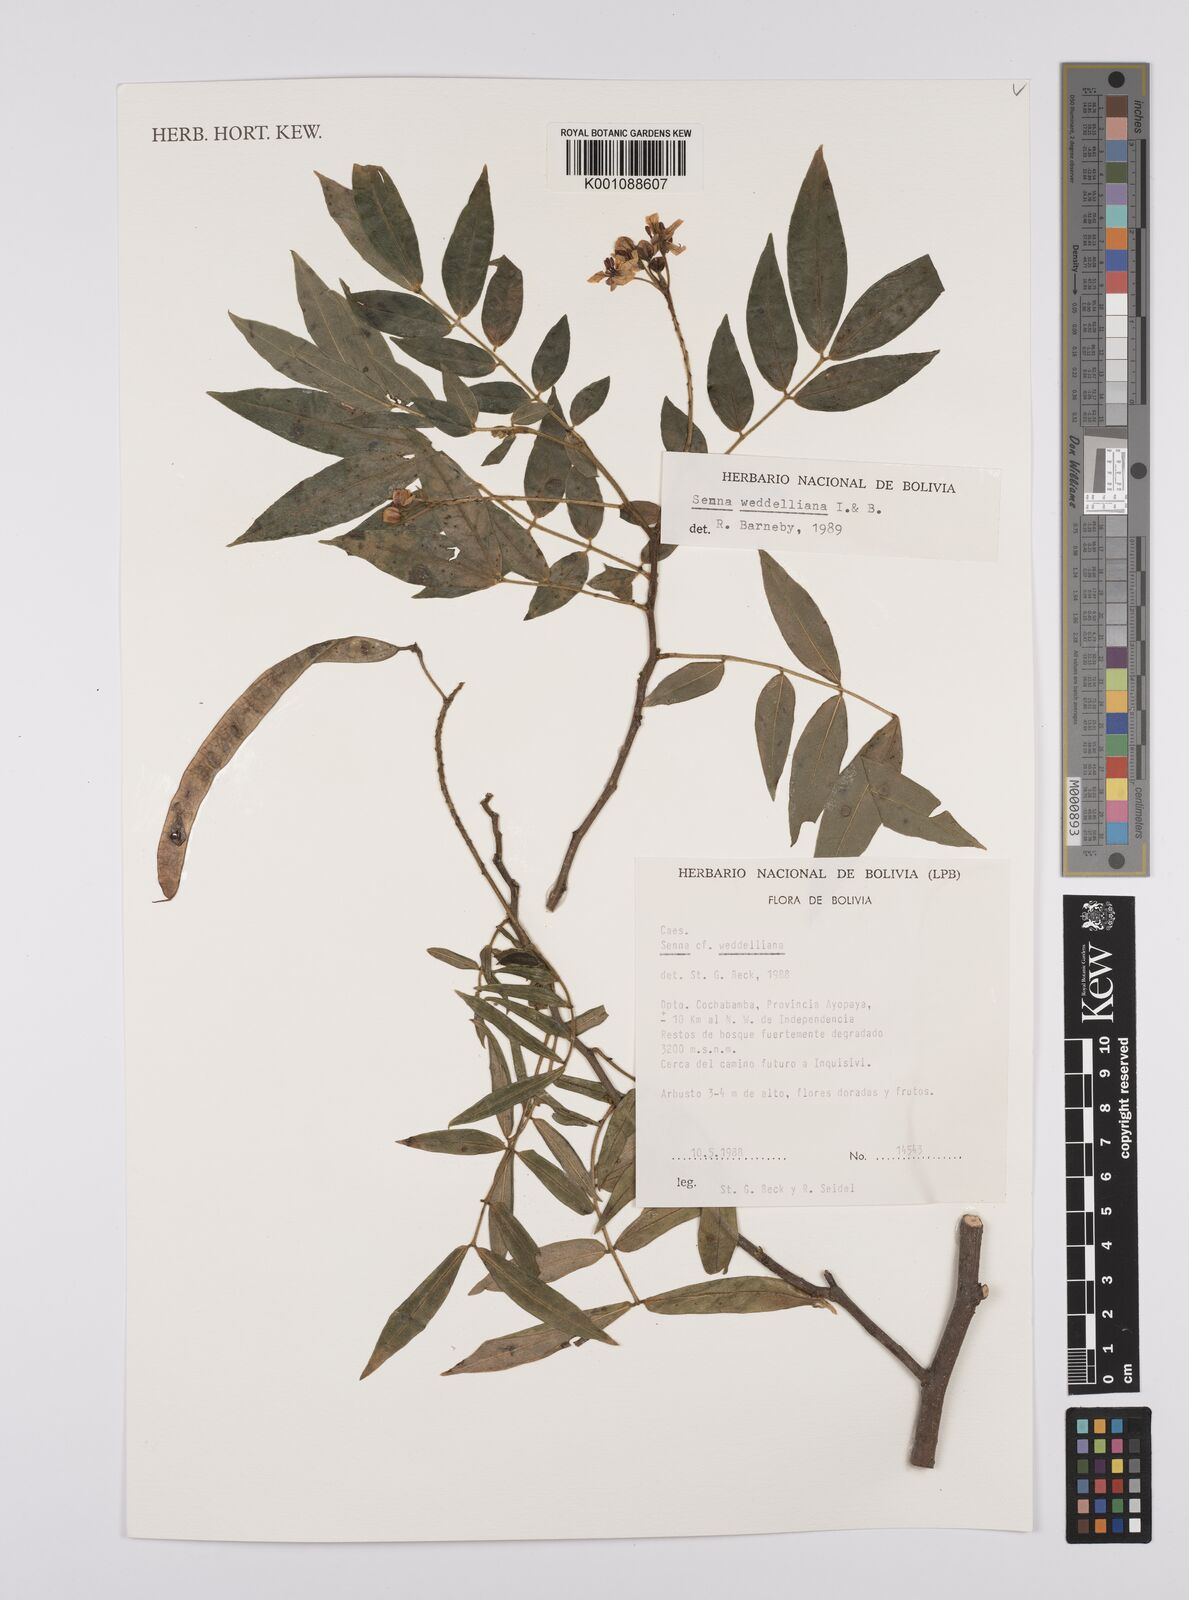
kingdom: Plantae
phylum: Tracheophyta
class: Magnoliopsida
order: Fabales
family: Fabaceae
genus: Senna
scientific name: Senna weddelliana
